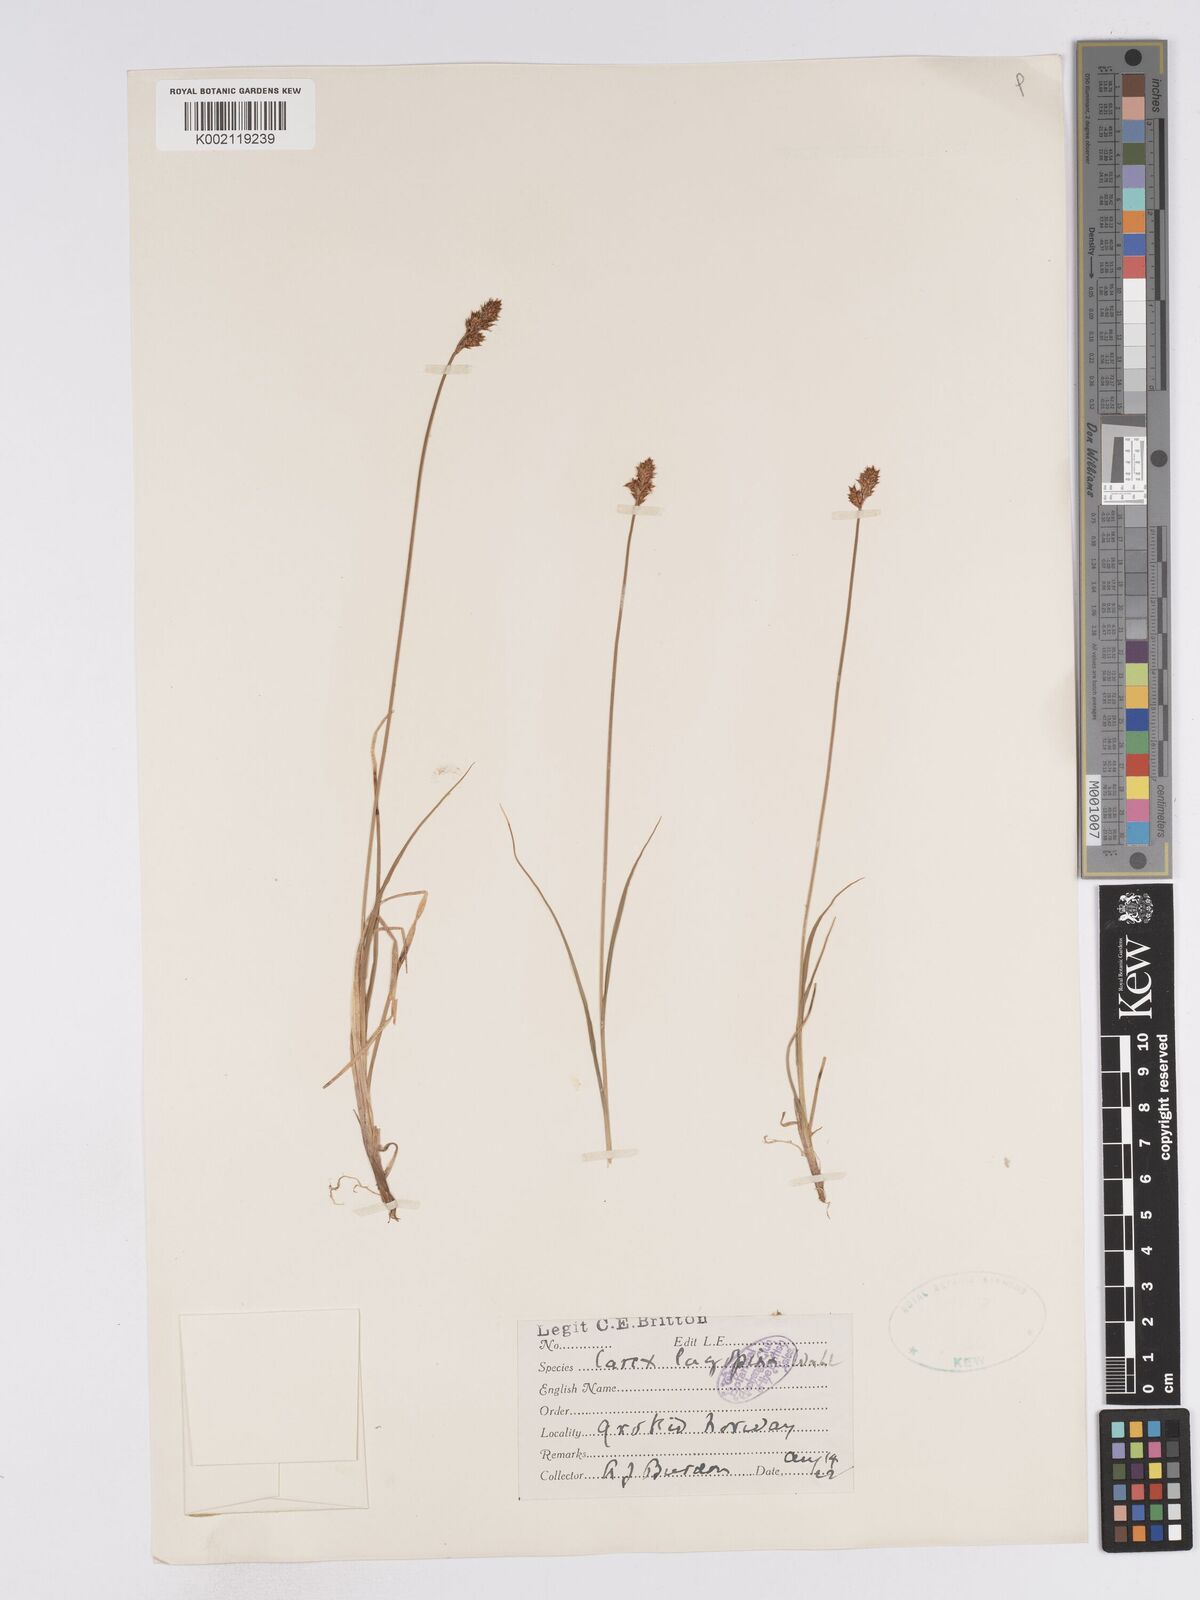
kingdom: Plantae
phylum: Tracheophyta
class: Liliopsida
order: Poales
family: Cyperaceae
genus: Carex
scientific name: Carex lachenalii
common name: Hare's-foot sedge
